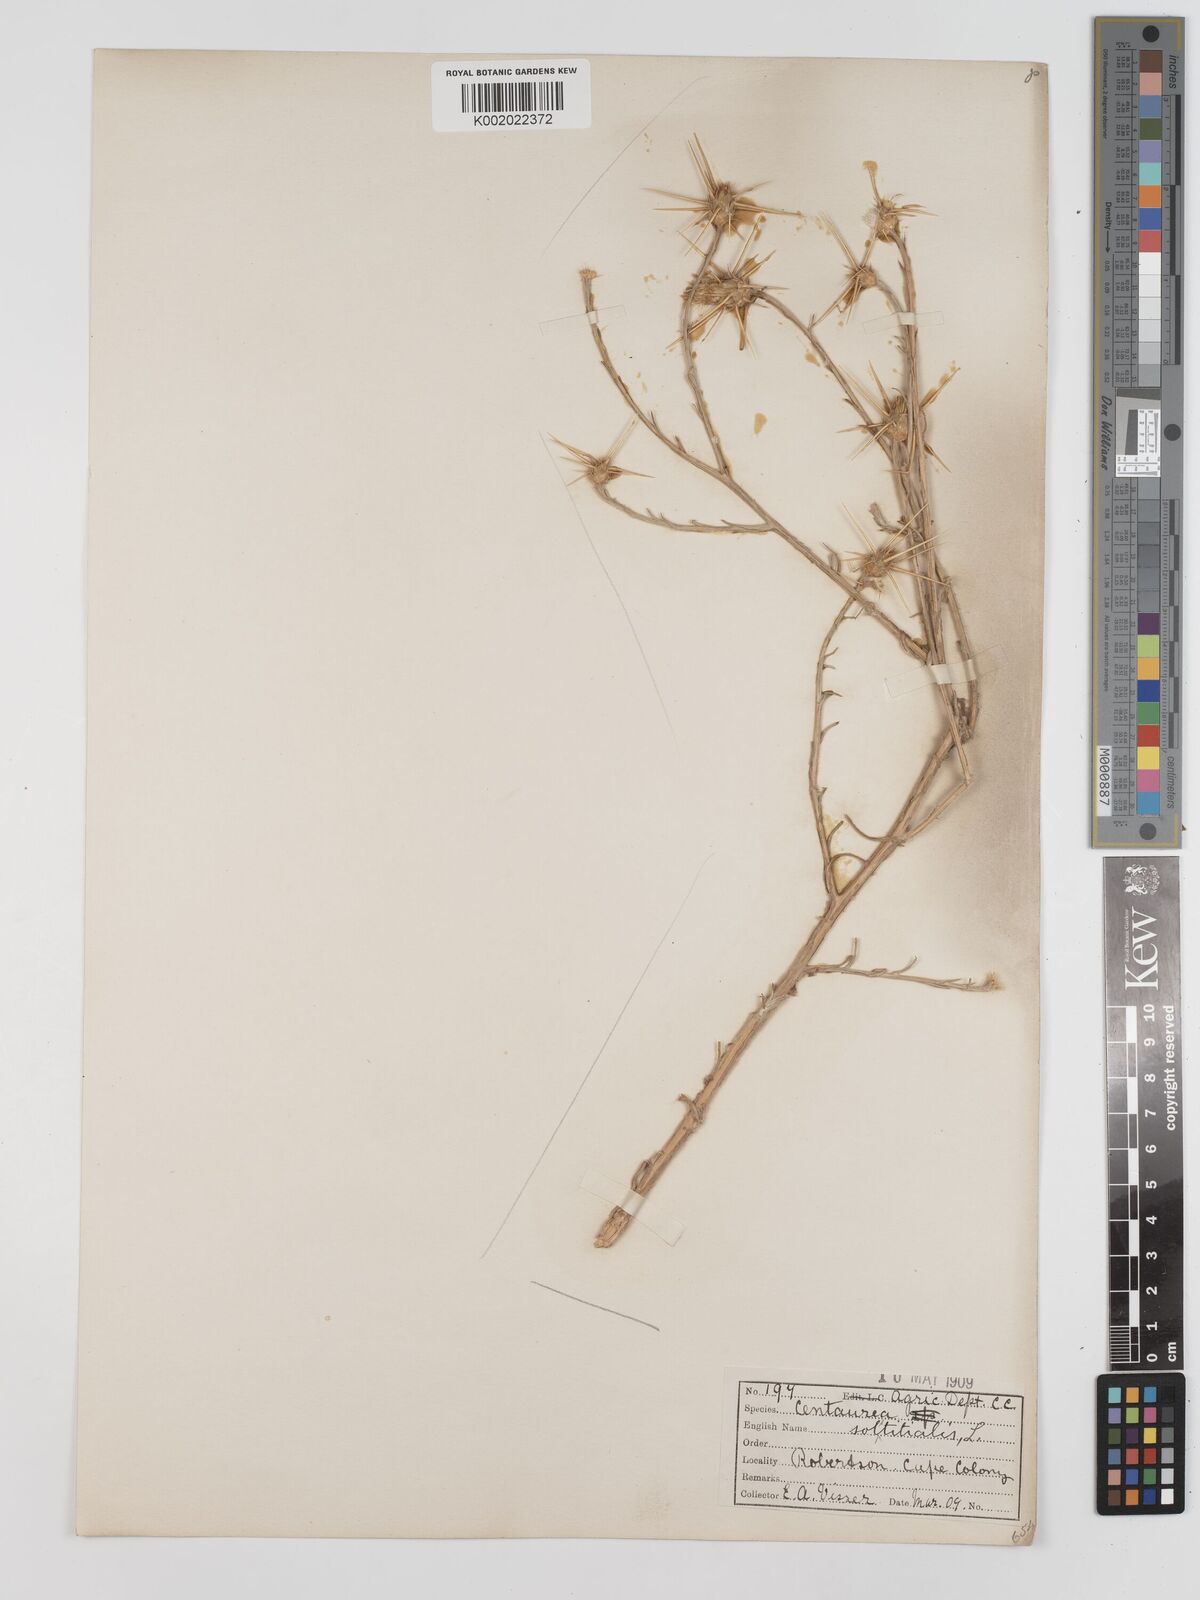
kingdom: Plantae
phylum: Tracheophyta
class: Magnoliopsida
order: Asterales
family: Asteraceae
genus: Centaurea
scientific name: Centaurea solstitialis
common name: Yellow star-thistle
